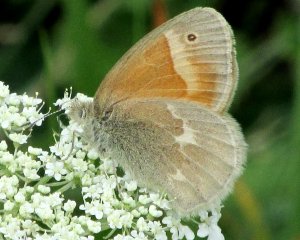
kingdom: Animalia
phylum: Arthropoda
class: Insecta
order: Lepidoptera
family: Nymphalidae
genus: Coenonympha
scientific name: Coenonympha tullia
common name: Large Heath
